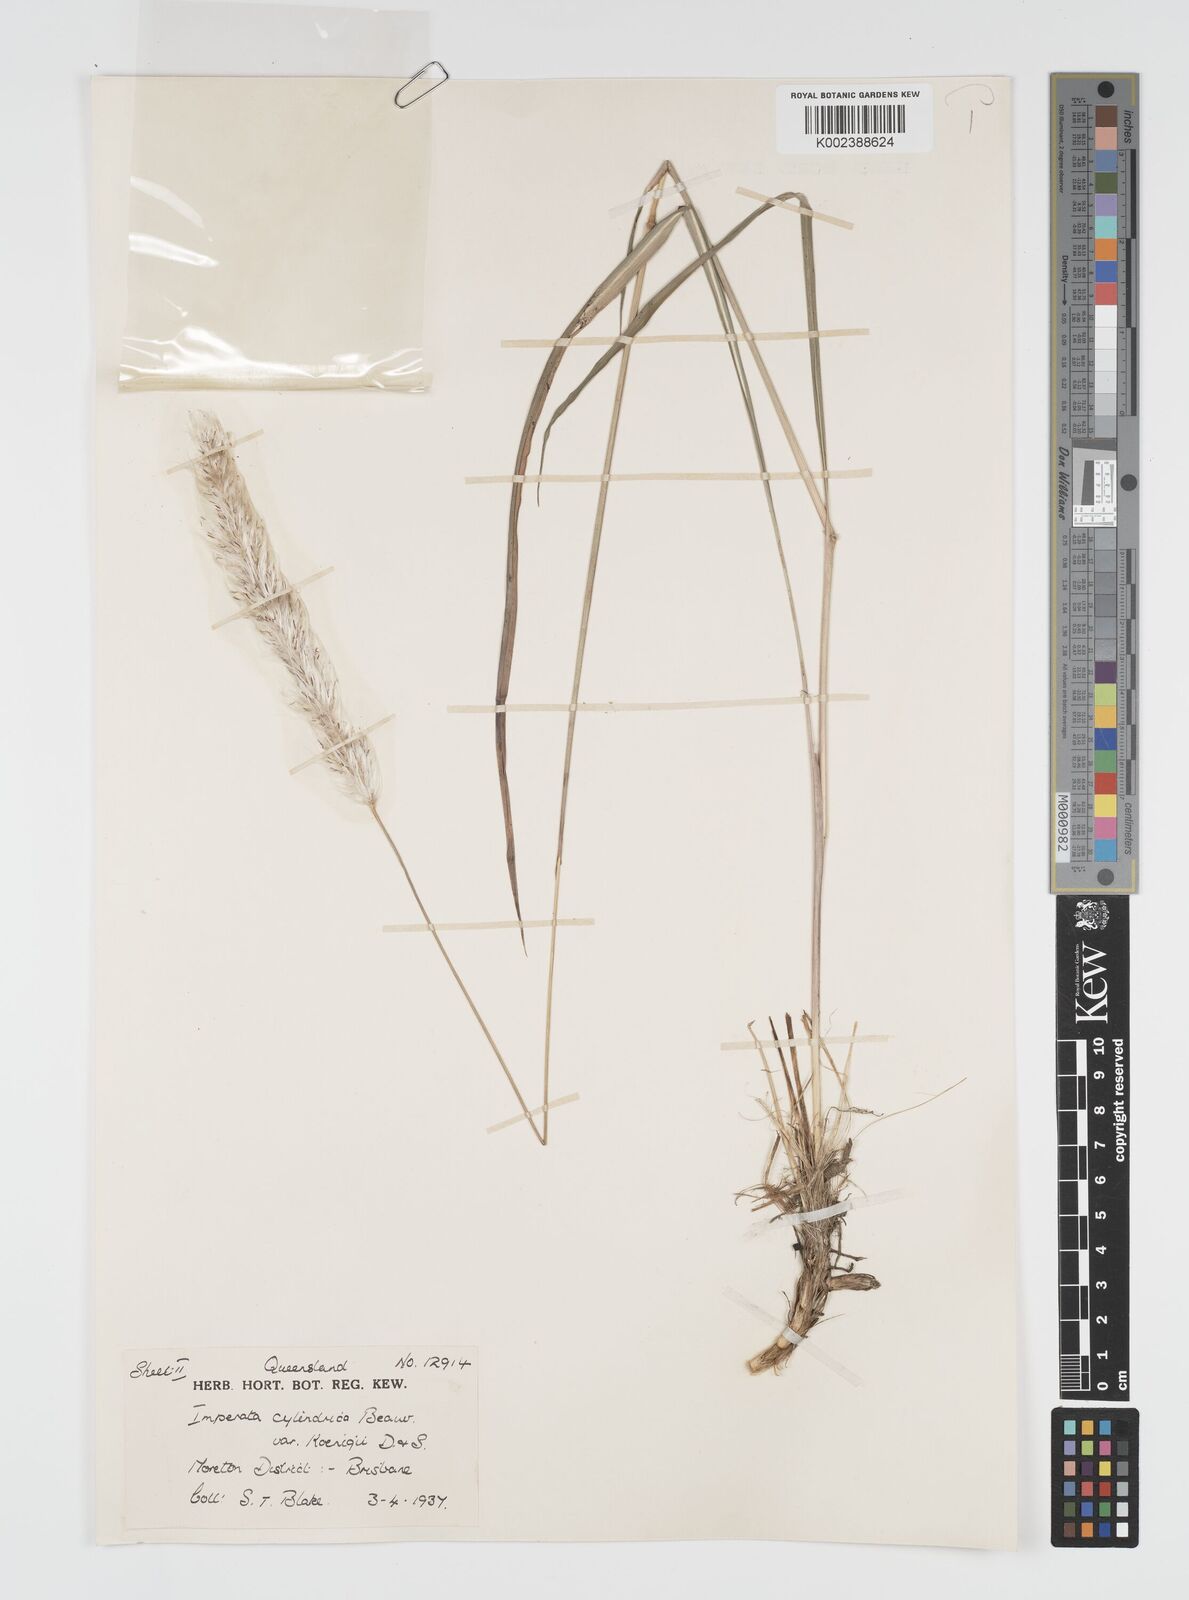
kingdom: Plantae
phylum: Tracheophyta
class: Liliopsida
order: Poales
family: Poaceae
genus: Imperata
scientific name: Imperata cylindrica
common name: Cogongrass
